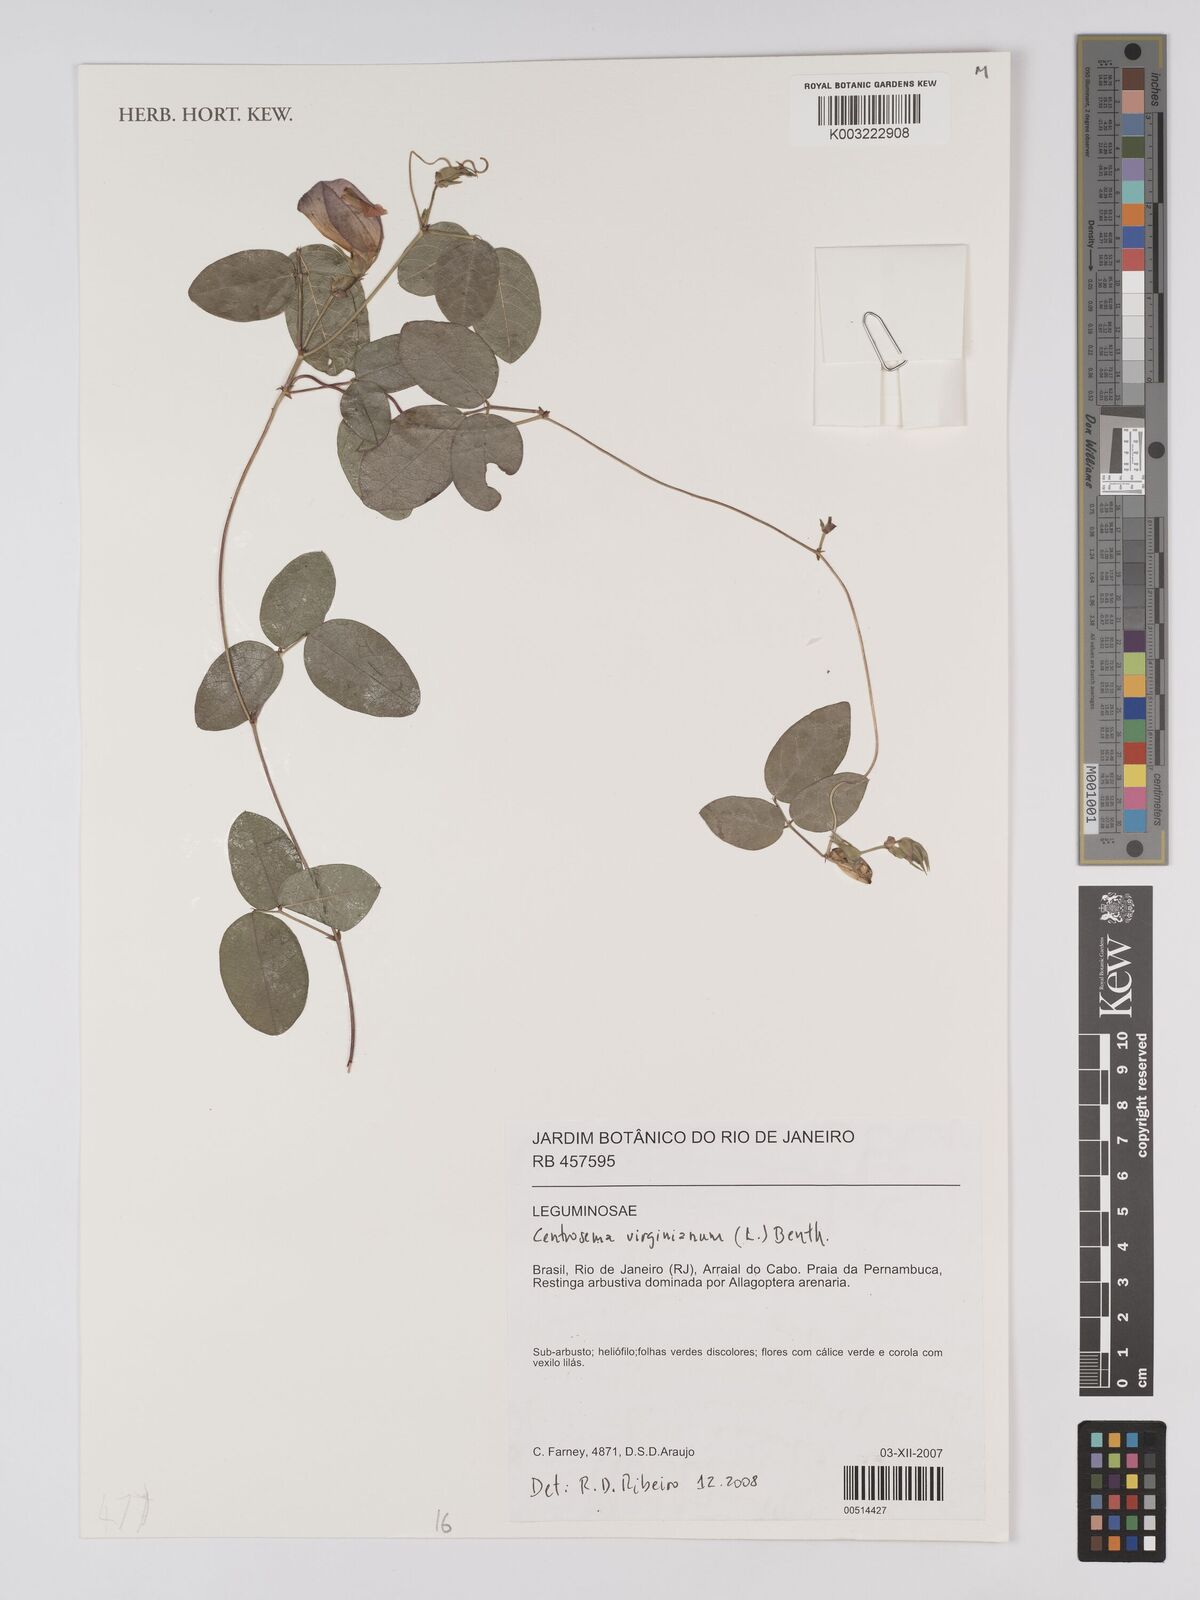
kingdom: Plantae
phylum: Tracheophyta
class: Magnoliopsida
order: Fabales
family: Fabaceae
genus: Centrosema
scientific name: Centrosema virginianum
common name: Butterfly-pea
